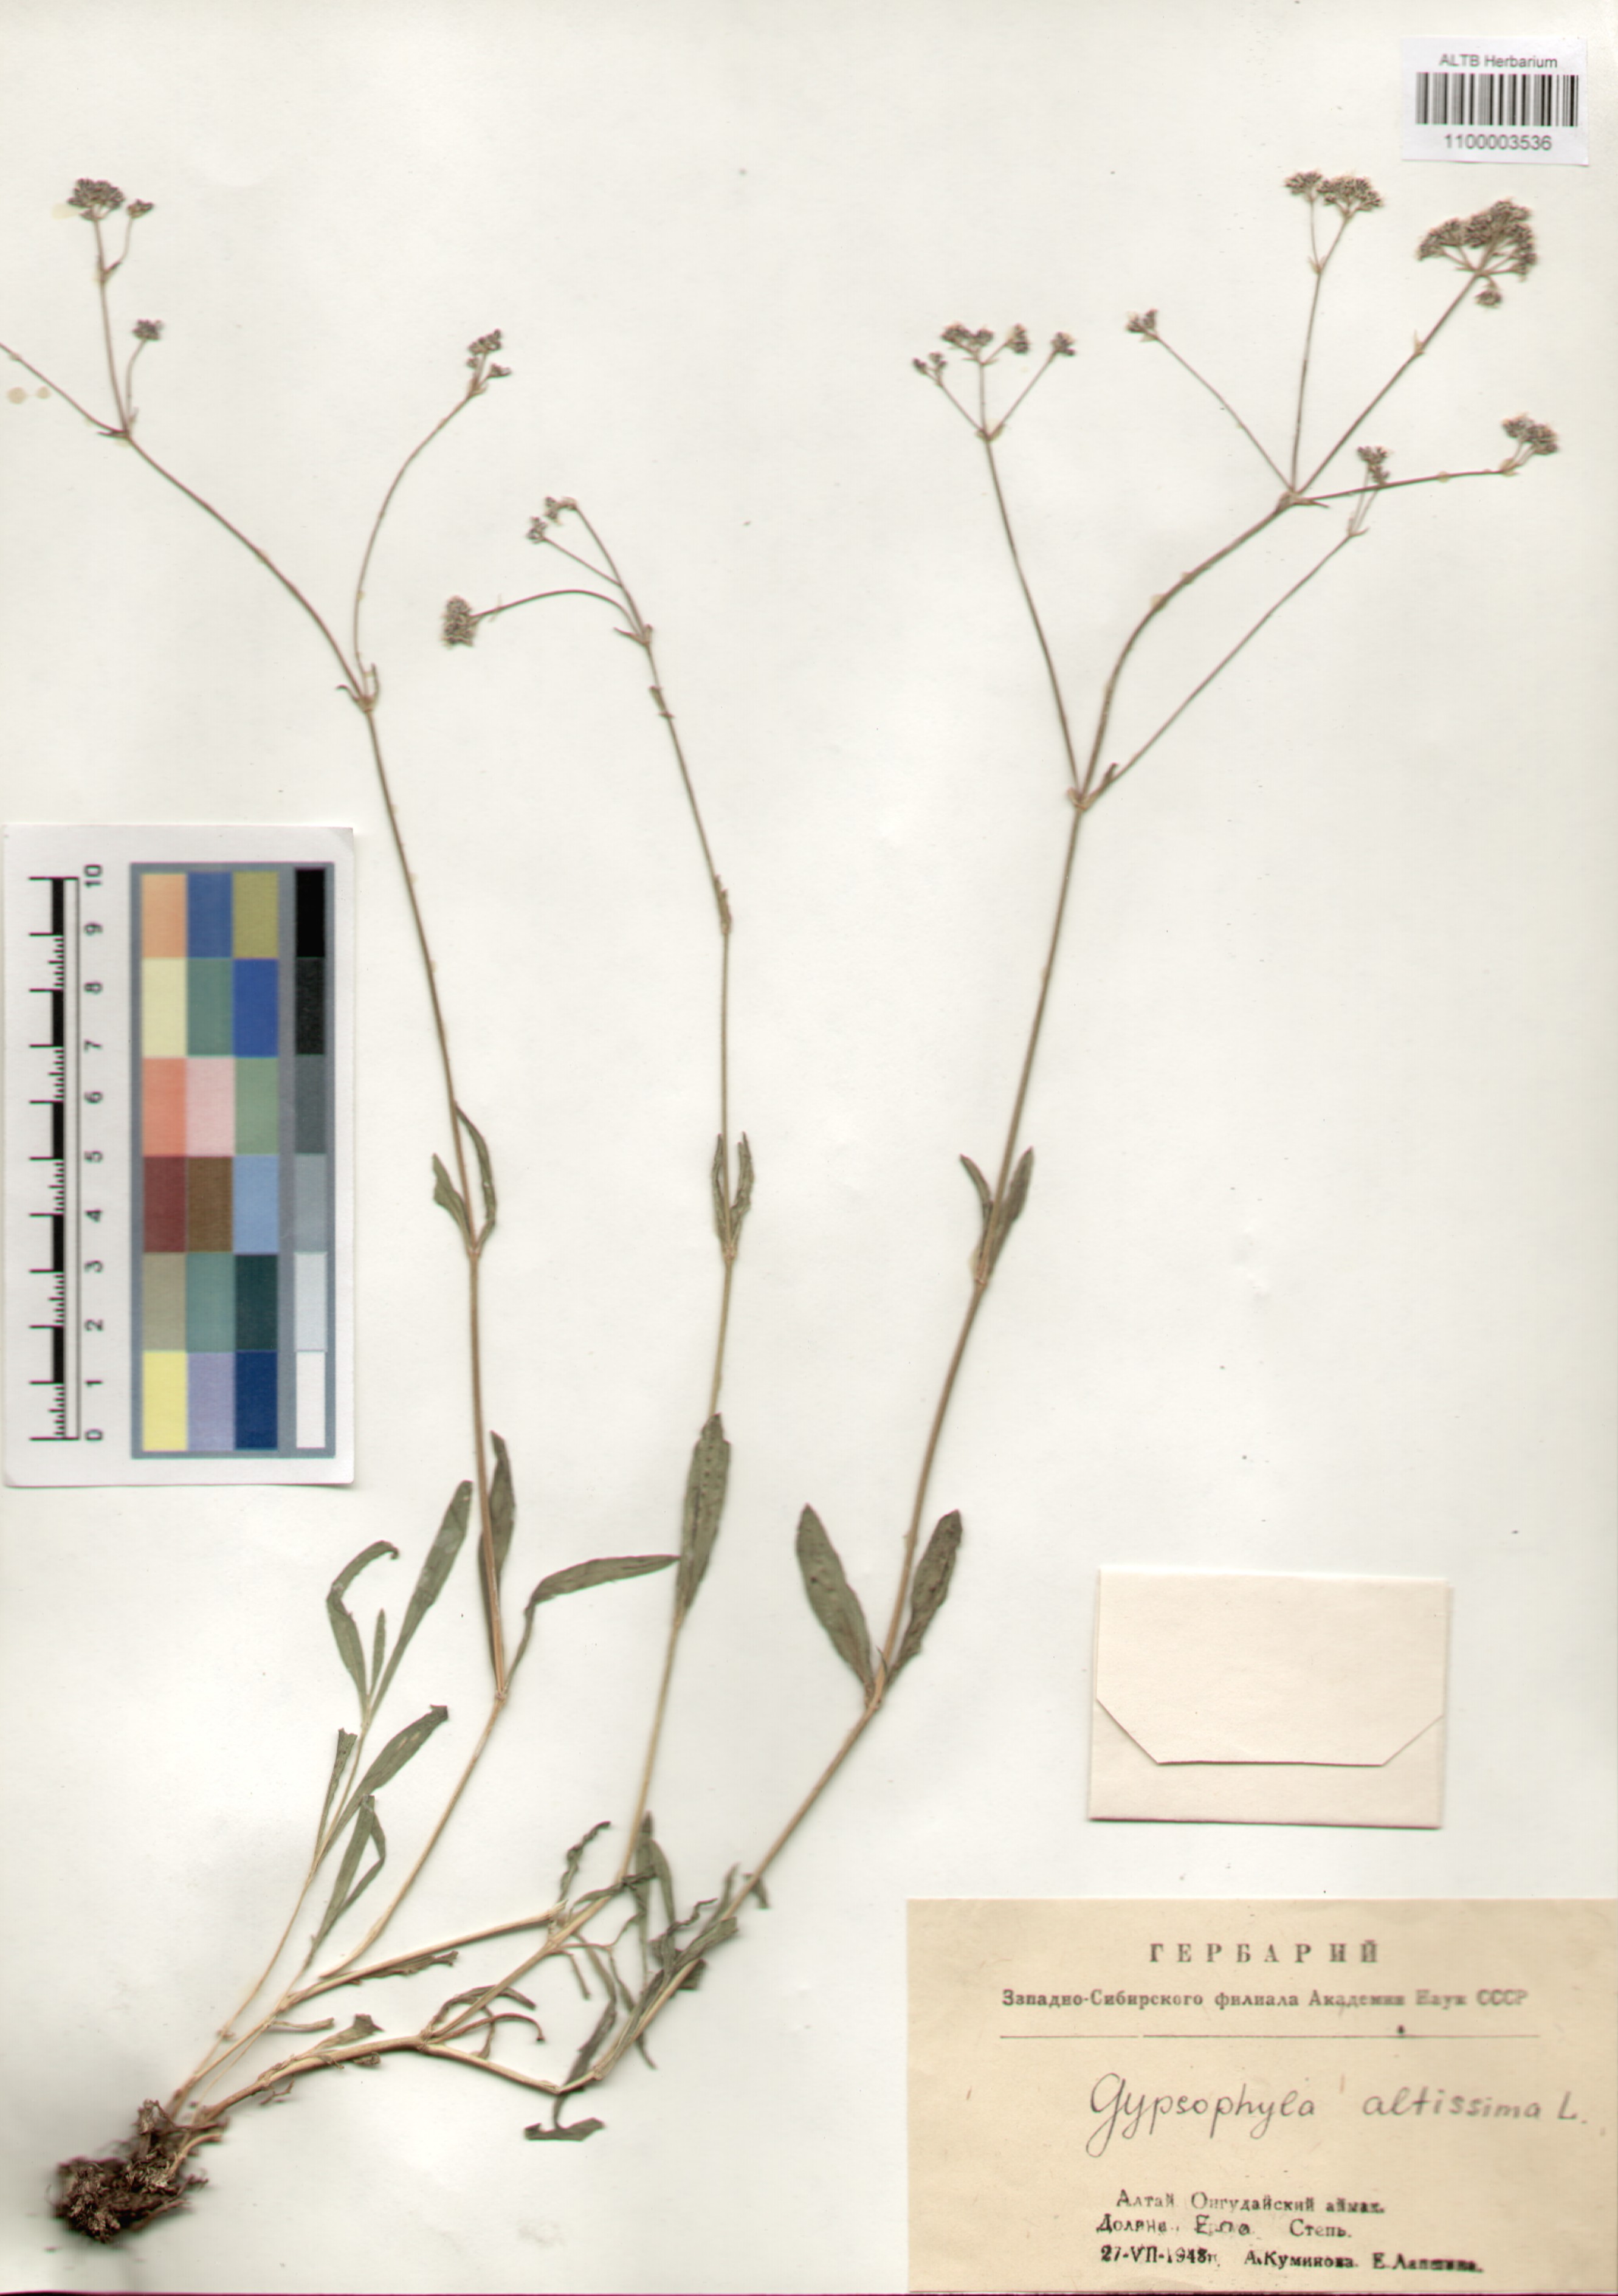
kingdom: Plantae
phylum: Tracheophyta
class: Magnoliopsida
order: Caryophyllales
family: Caryophyllaceae
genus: Gypsophila
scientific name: Gypsophila altissima
